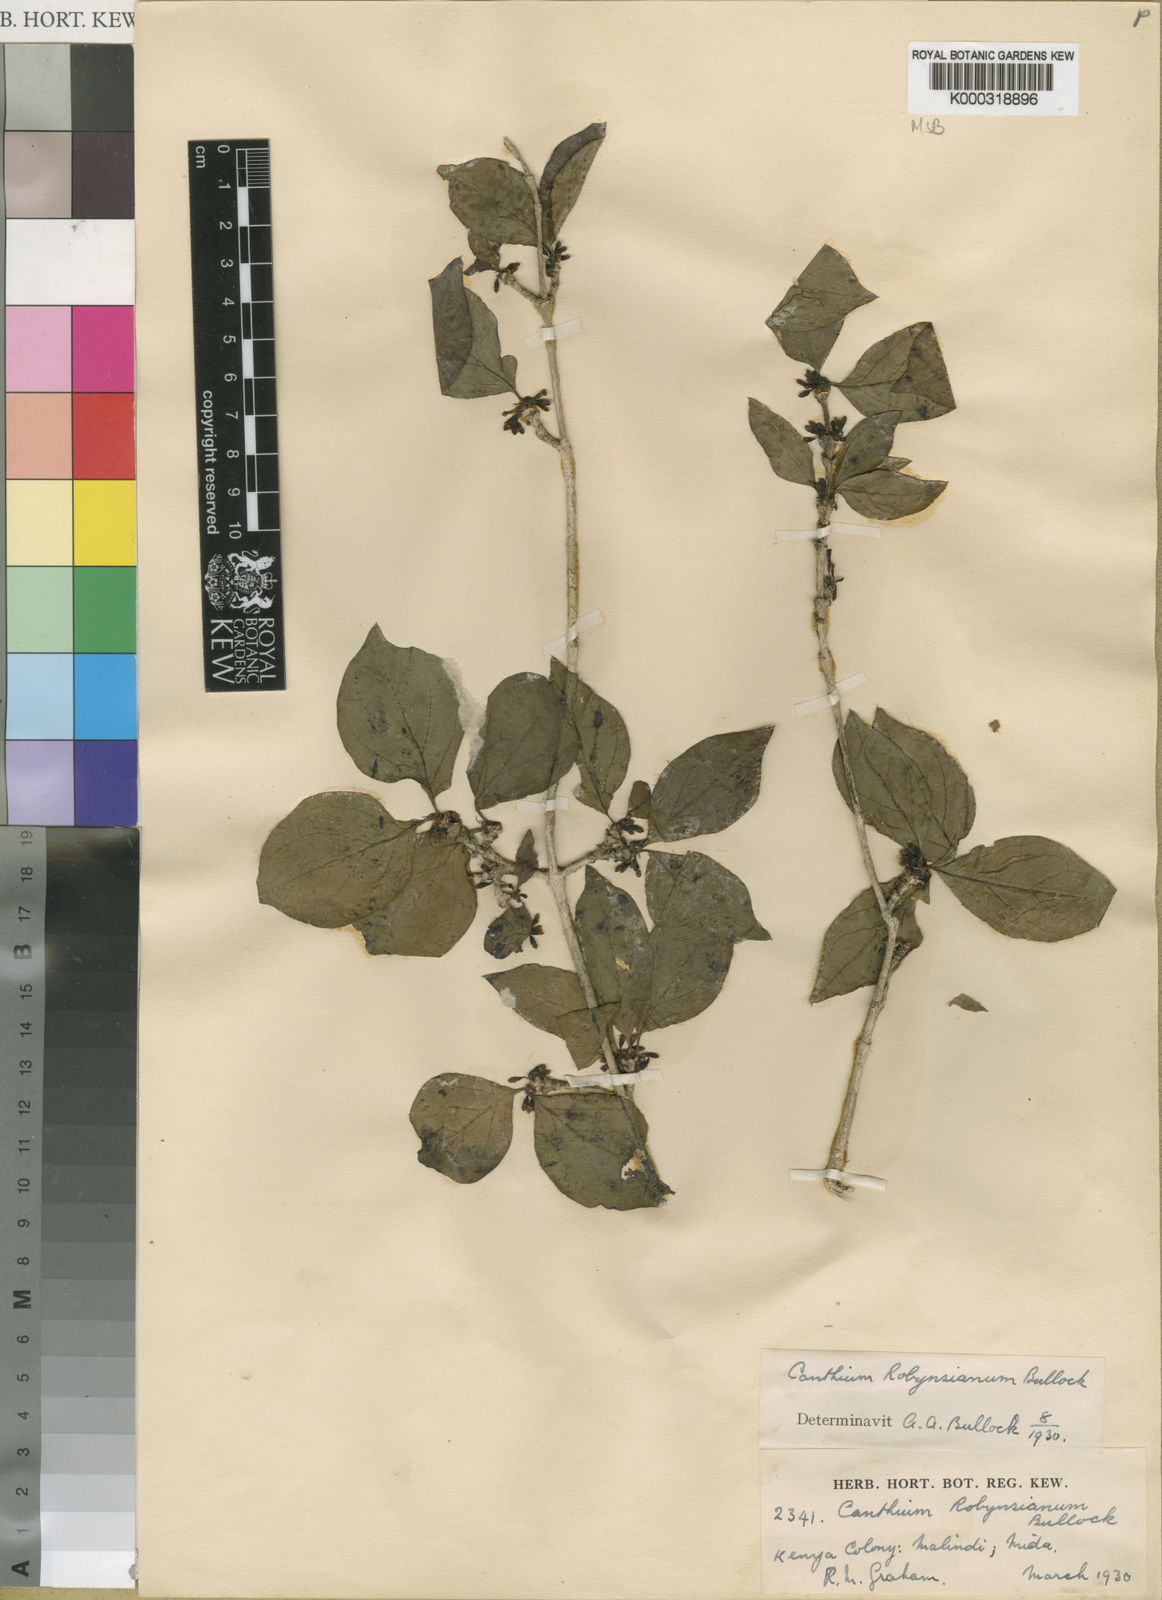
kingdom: Plantae
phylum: Tracheophyta
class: Magnoliopsida
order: Gentianales
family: Rubiaceae
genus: Afrocanthium
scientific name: Afrocanthium pseudoverticillatum
